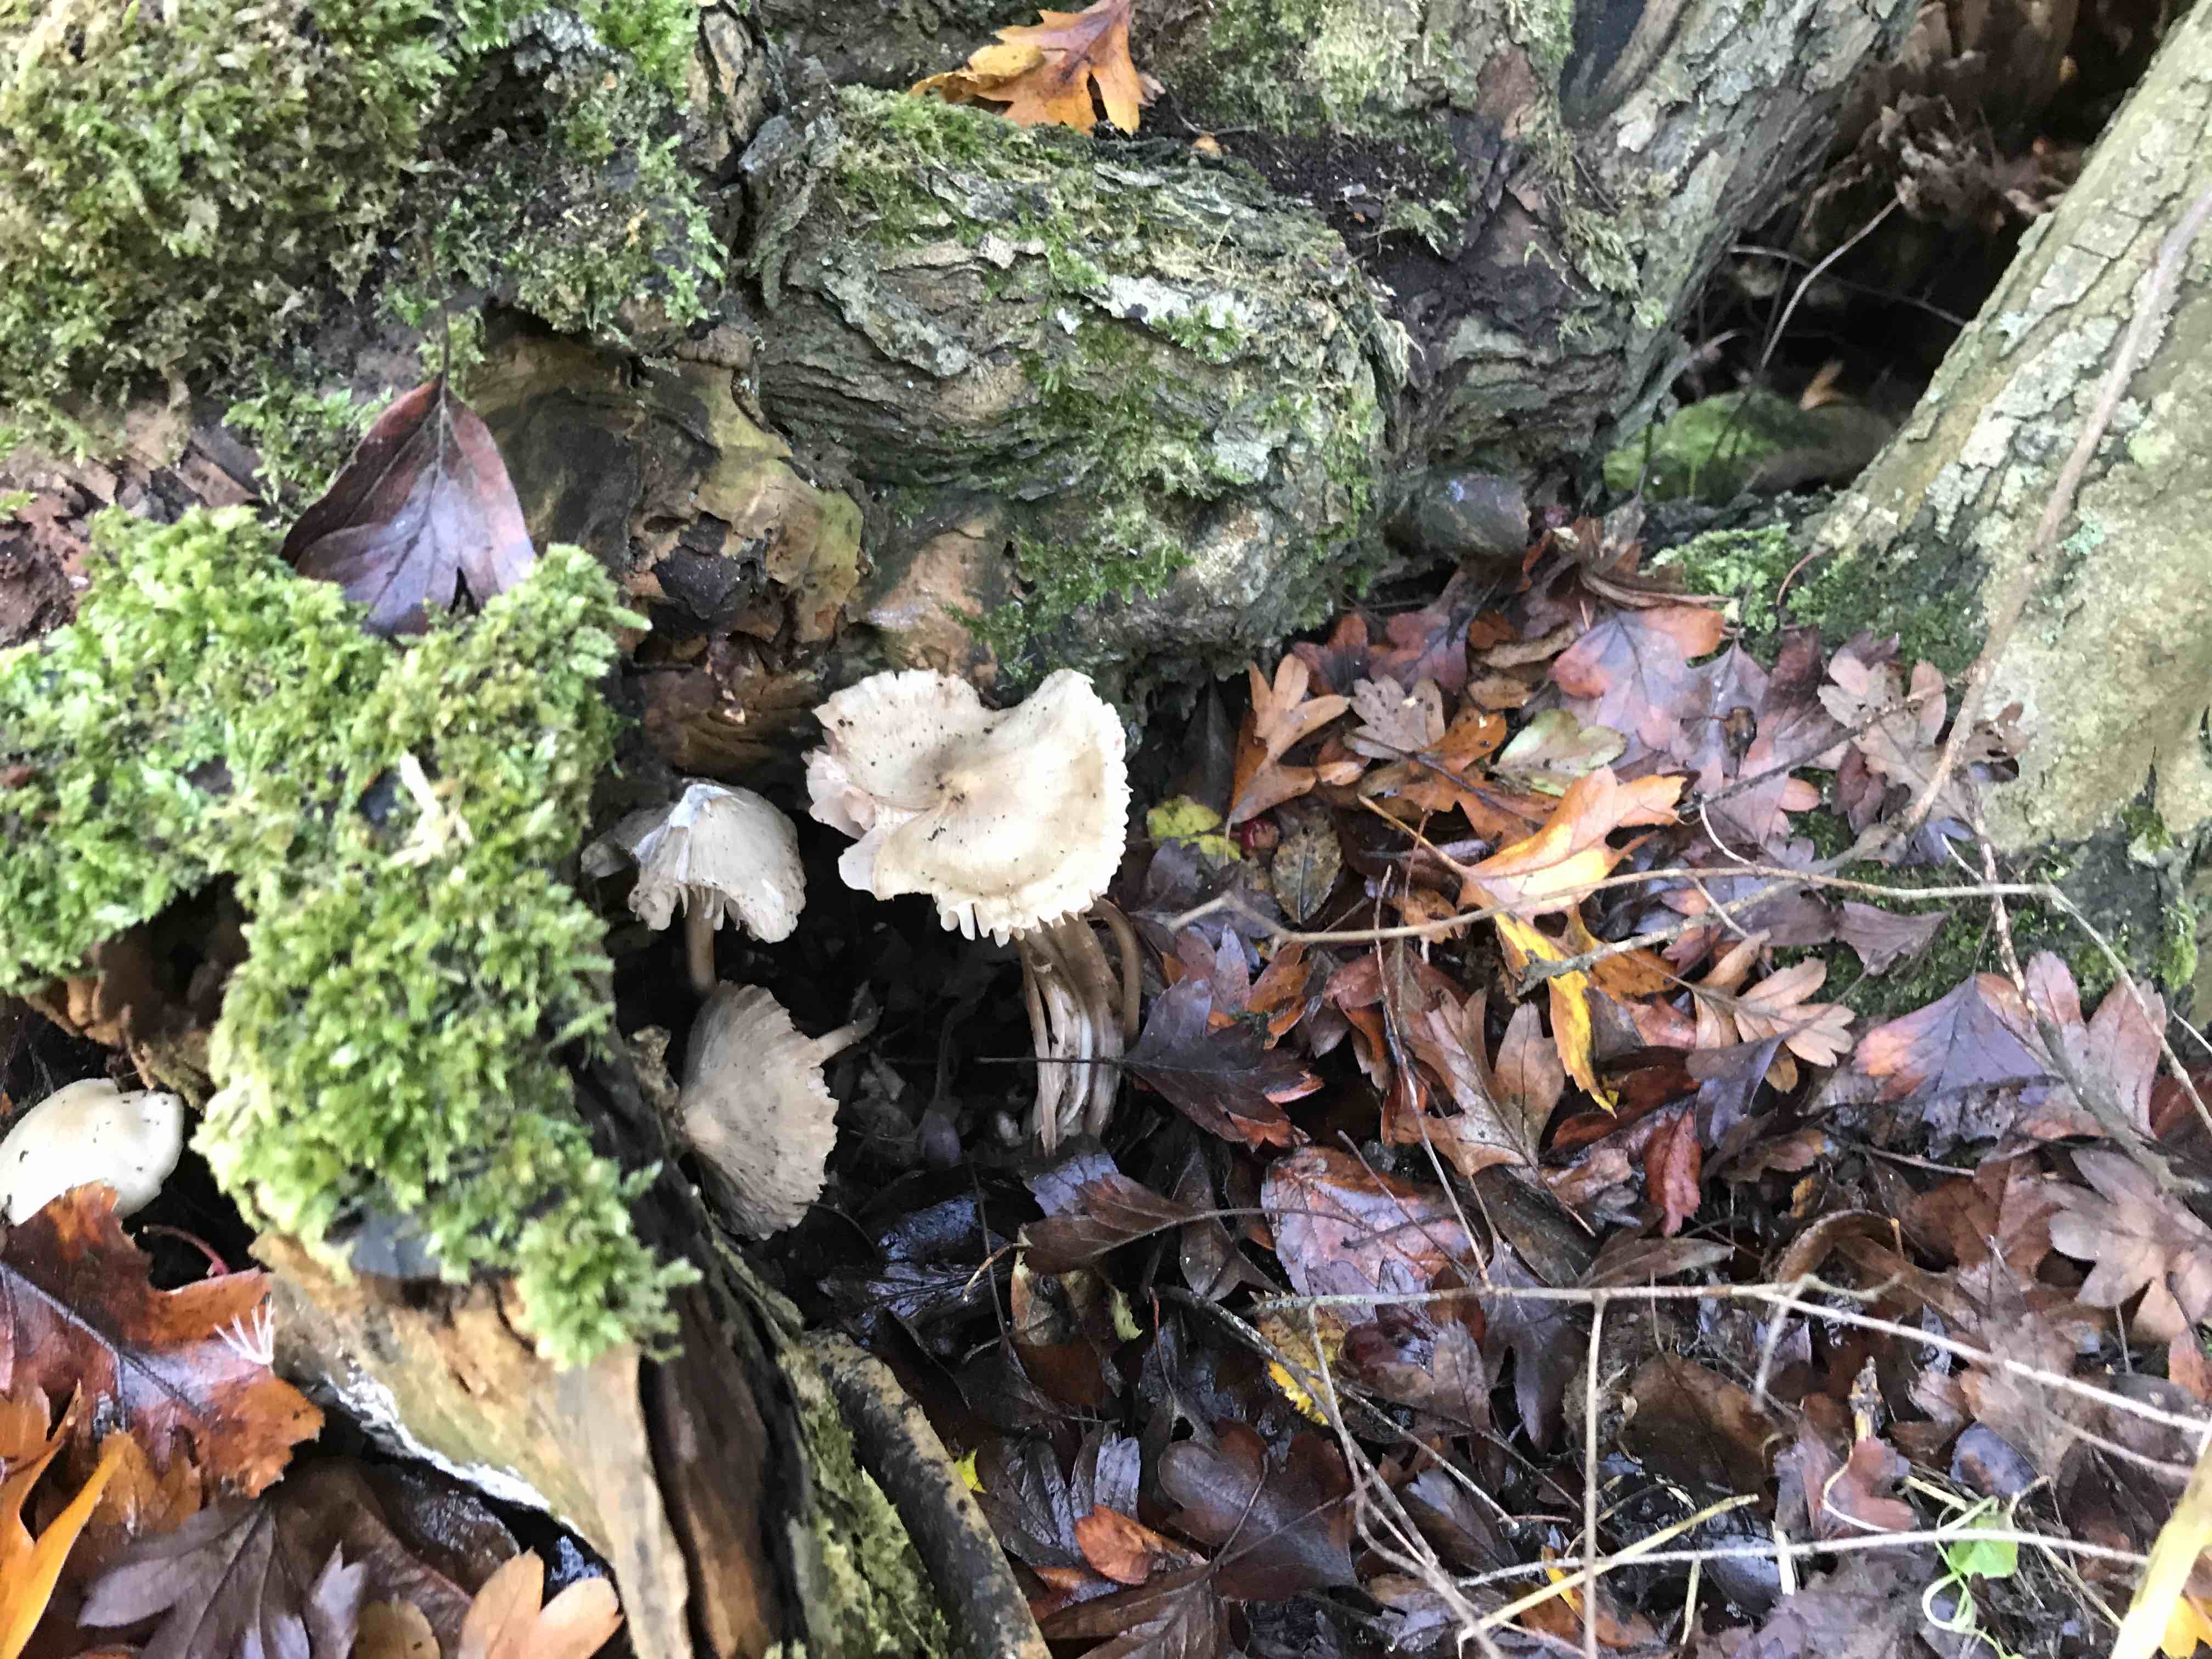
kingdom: Fungi
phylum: Basidiomycota
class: Agaricomycetes
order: Agaricales
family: Mycenaceae
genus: Mycena
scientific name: Mycena galericulata
